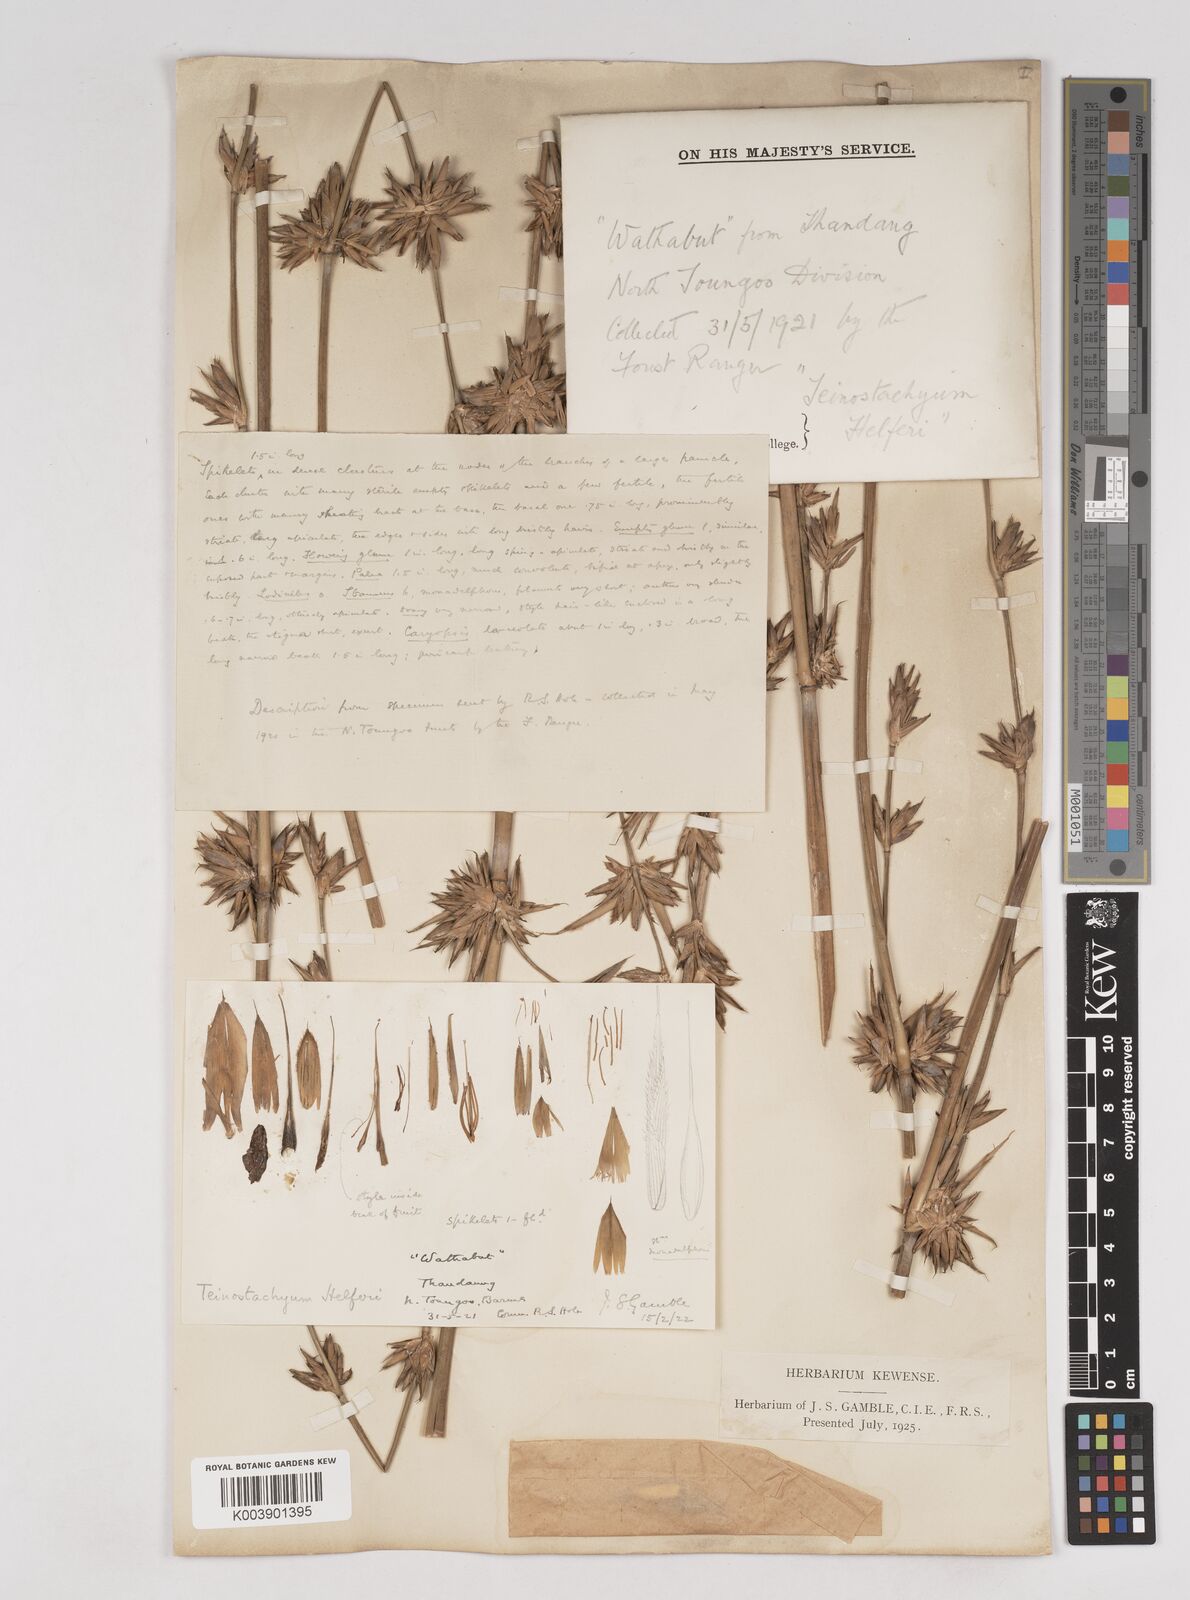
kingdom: Plantae
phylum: Tracheophyta
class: Liliopsida
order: Poales
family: Poaceae
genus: Schizostachyum
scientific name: Schizostachyum helferi
